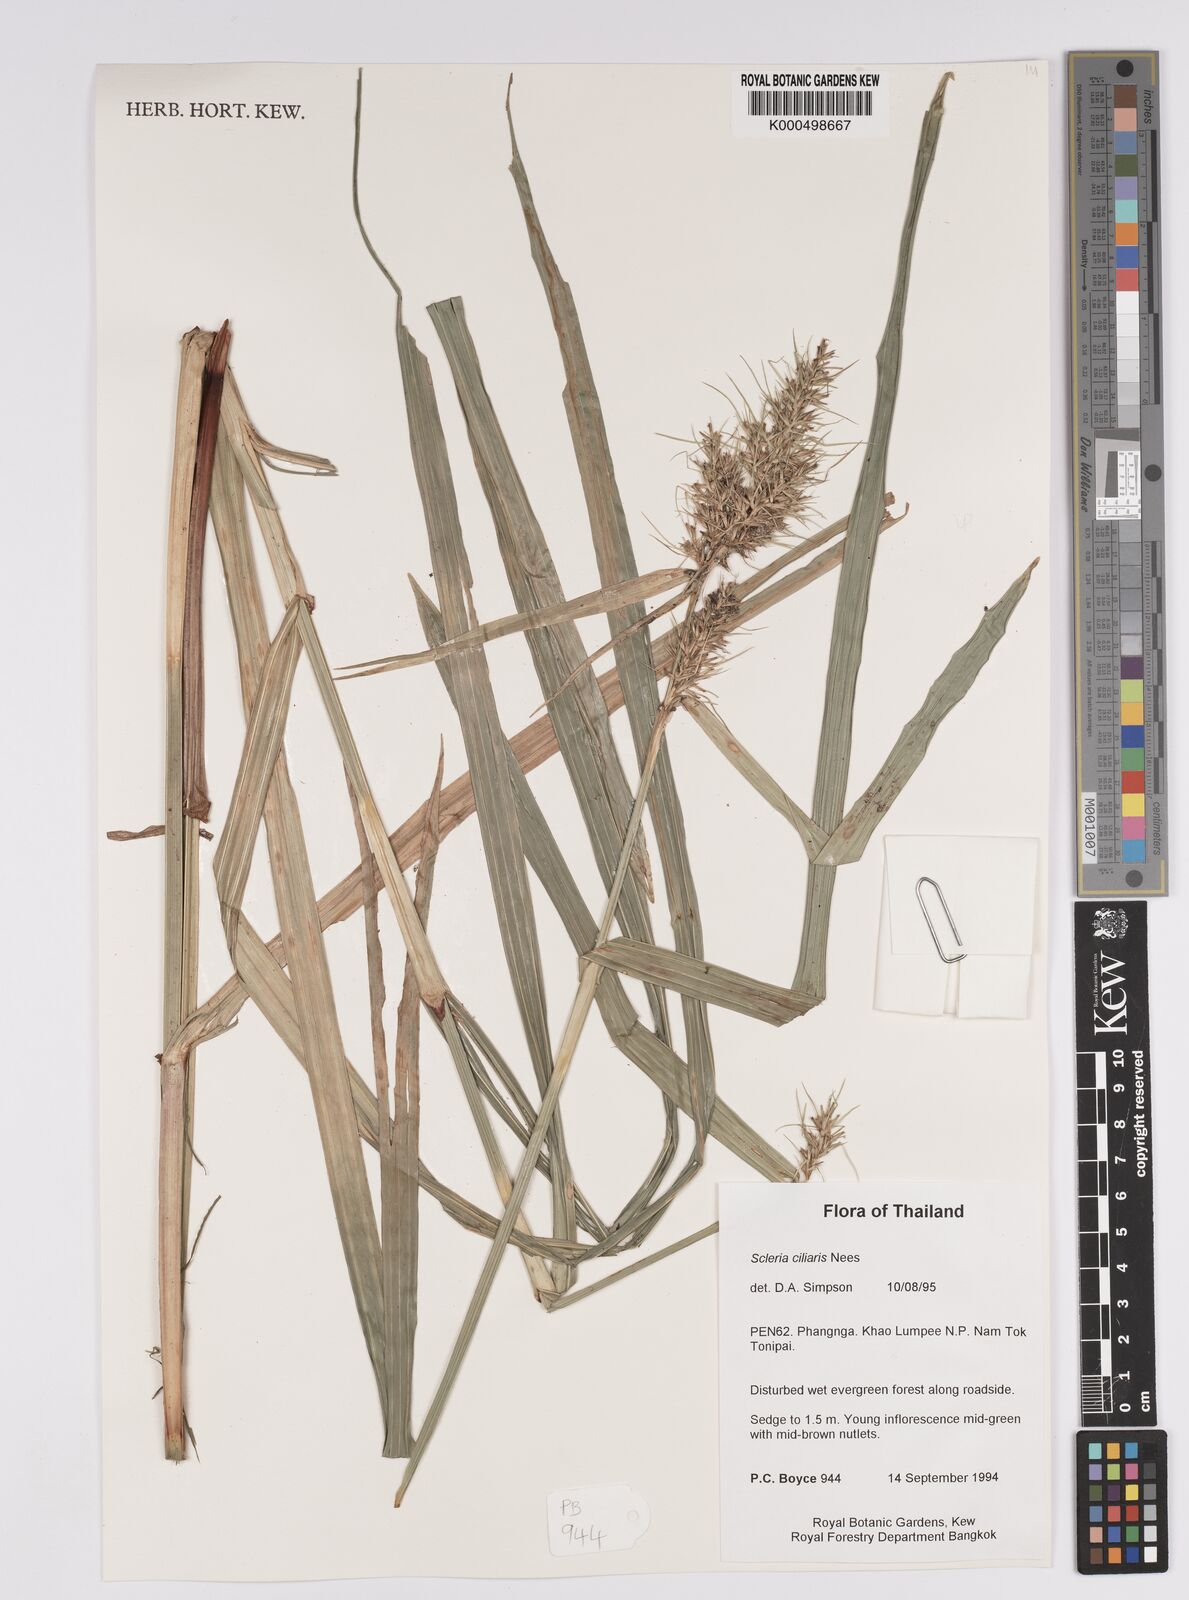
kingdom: Plantae
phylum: Tracheophyta
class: Liliopsida
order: Poales
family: Cyperaceae
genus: Scleria
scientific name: Scleria ciliaris
